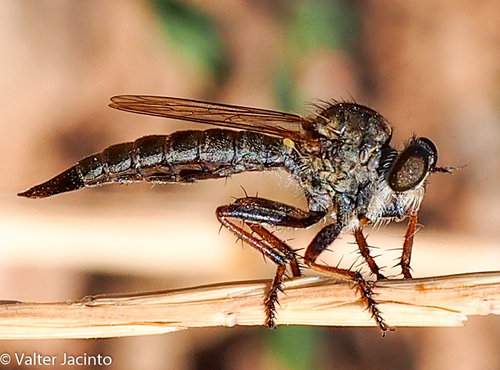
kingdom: Animalia
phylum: Arthropoda
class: Insecta
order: Diptera
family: Asilidae
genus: Machimus
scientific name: Machimus dasypygus
